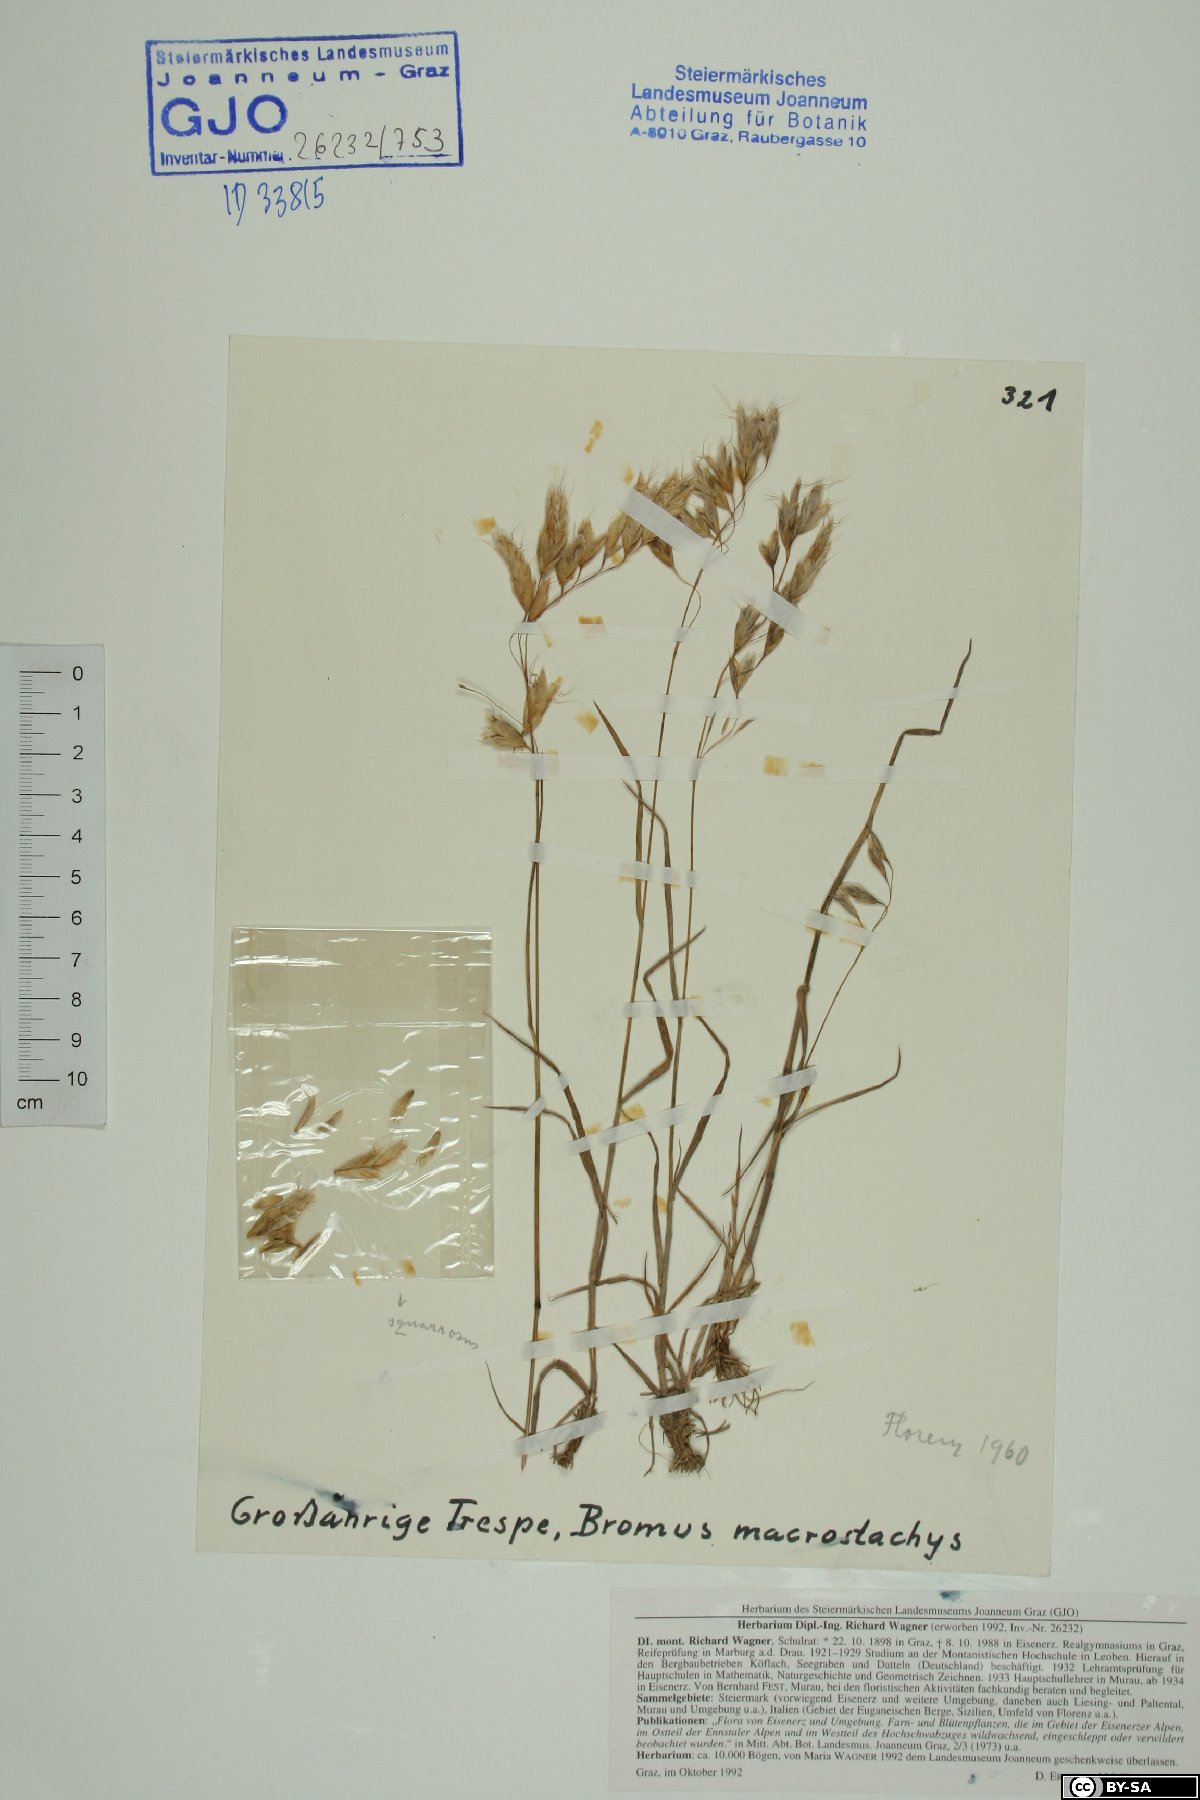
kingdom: Plantae
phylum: Tracheophyta
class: Liliopsida
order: Poales
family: Poaceae
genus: Bromus
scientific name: Bromus lanceolatus
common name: Mediterranean brome
